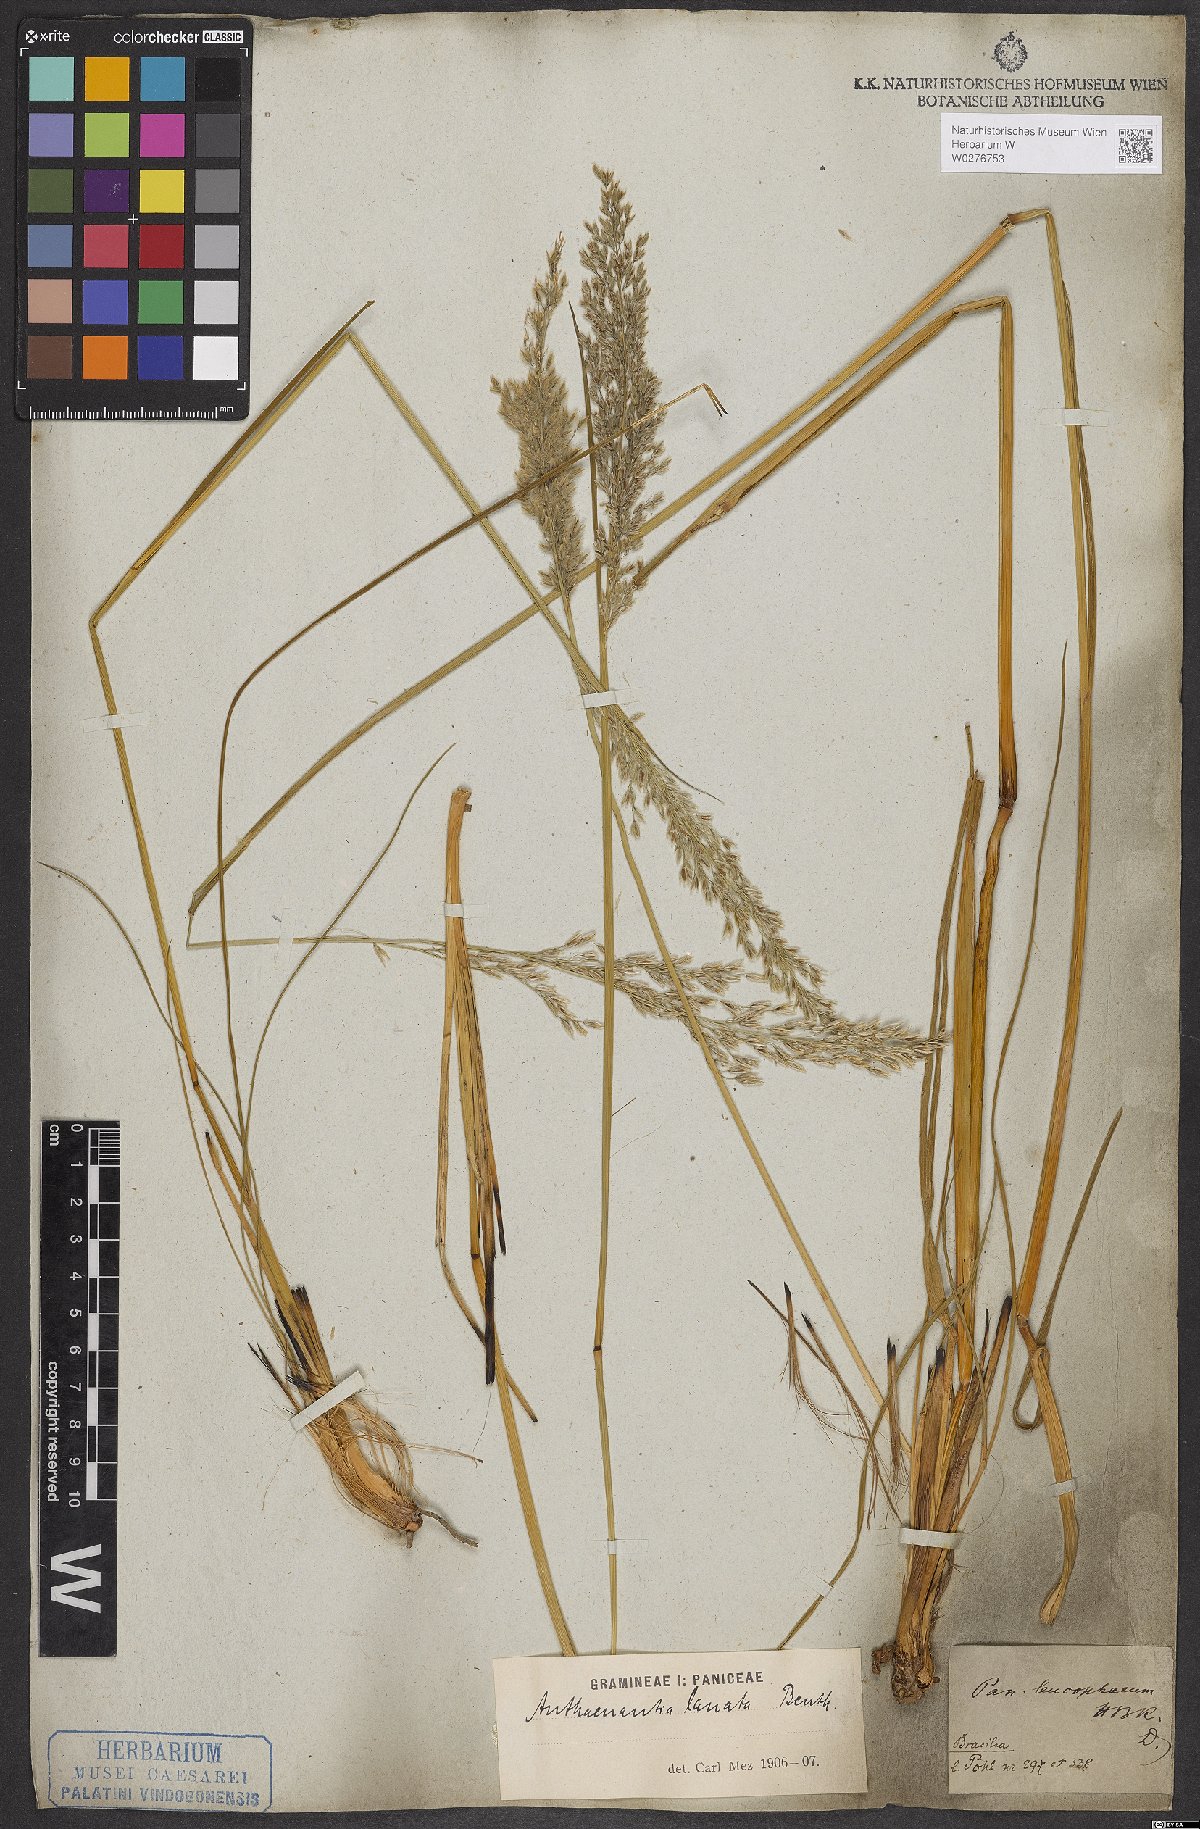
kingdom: Plantae
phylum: Tracheophyta
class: Liliopsida
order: Poales
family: Poaceae
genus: Anthaenantia
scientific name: Anthaenantia lanata
